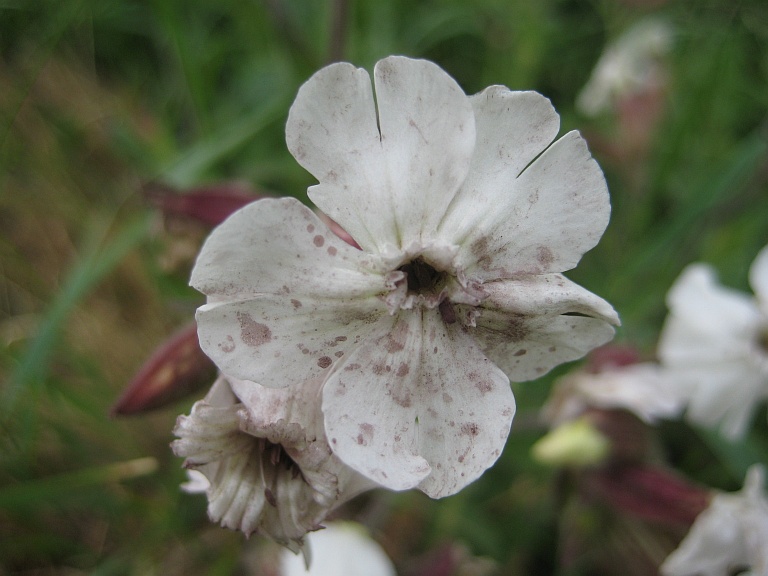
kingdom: Fungi
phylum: Basidiomycota
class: Microbotryomycetes
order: Microbotryales
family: Microbotryaceae
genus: Microbotryum
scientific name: Microbotryum lychnidis-dioicae
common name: Campion anther smut
